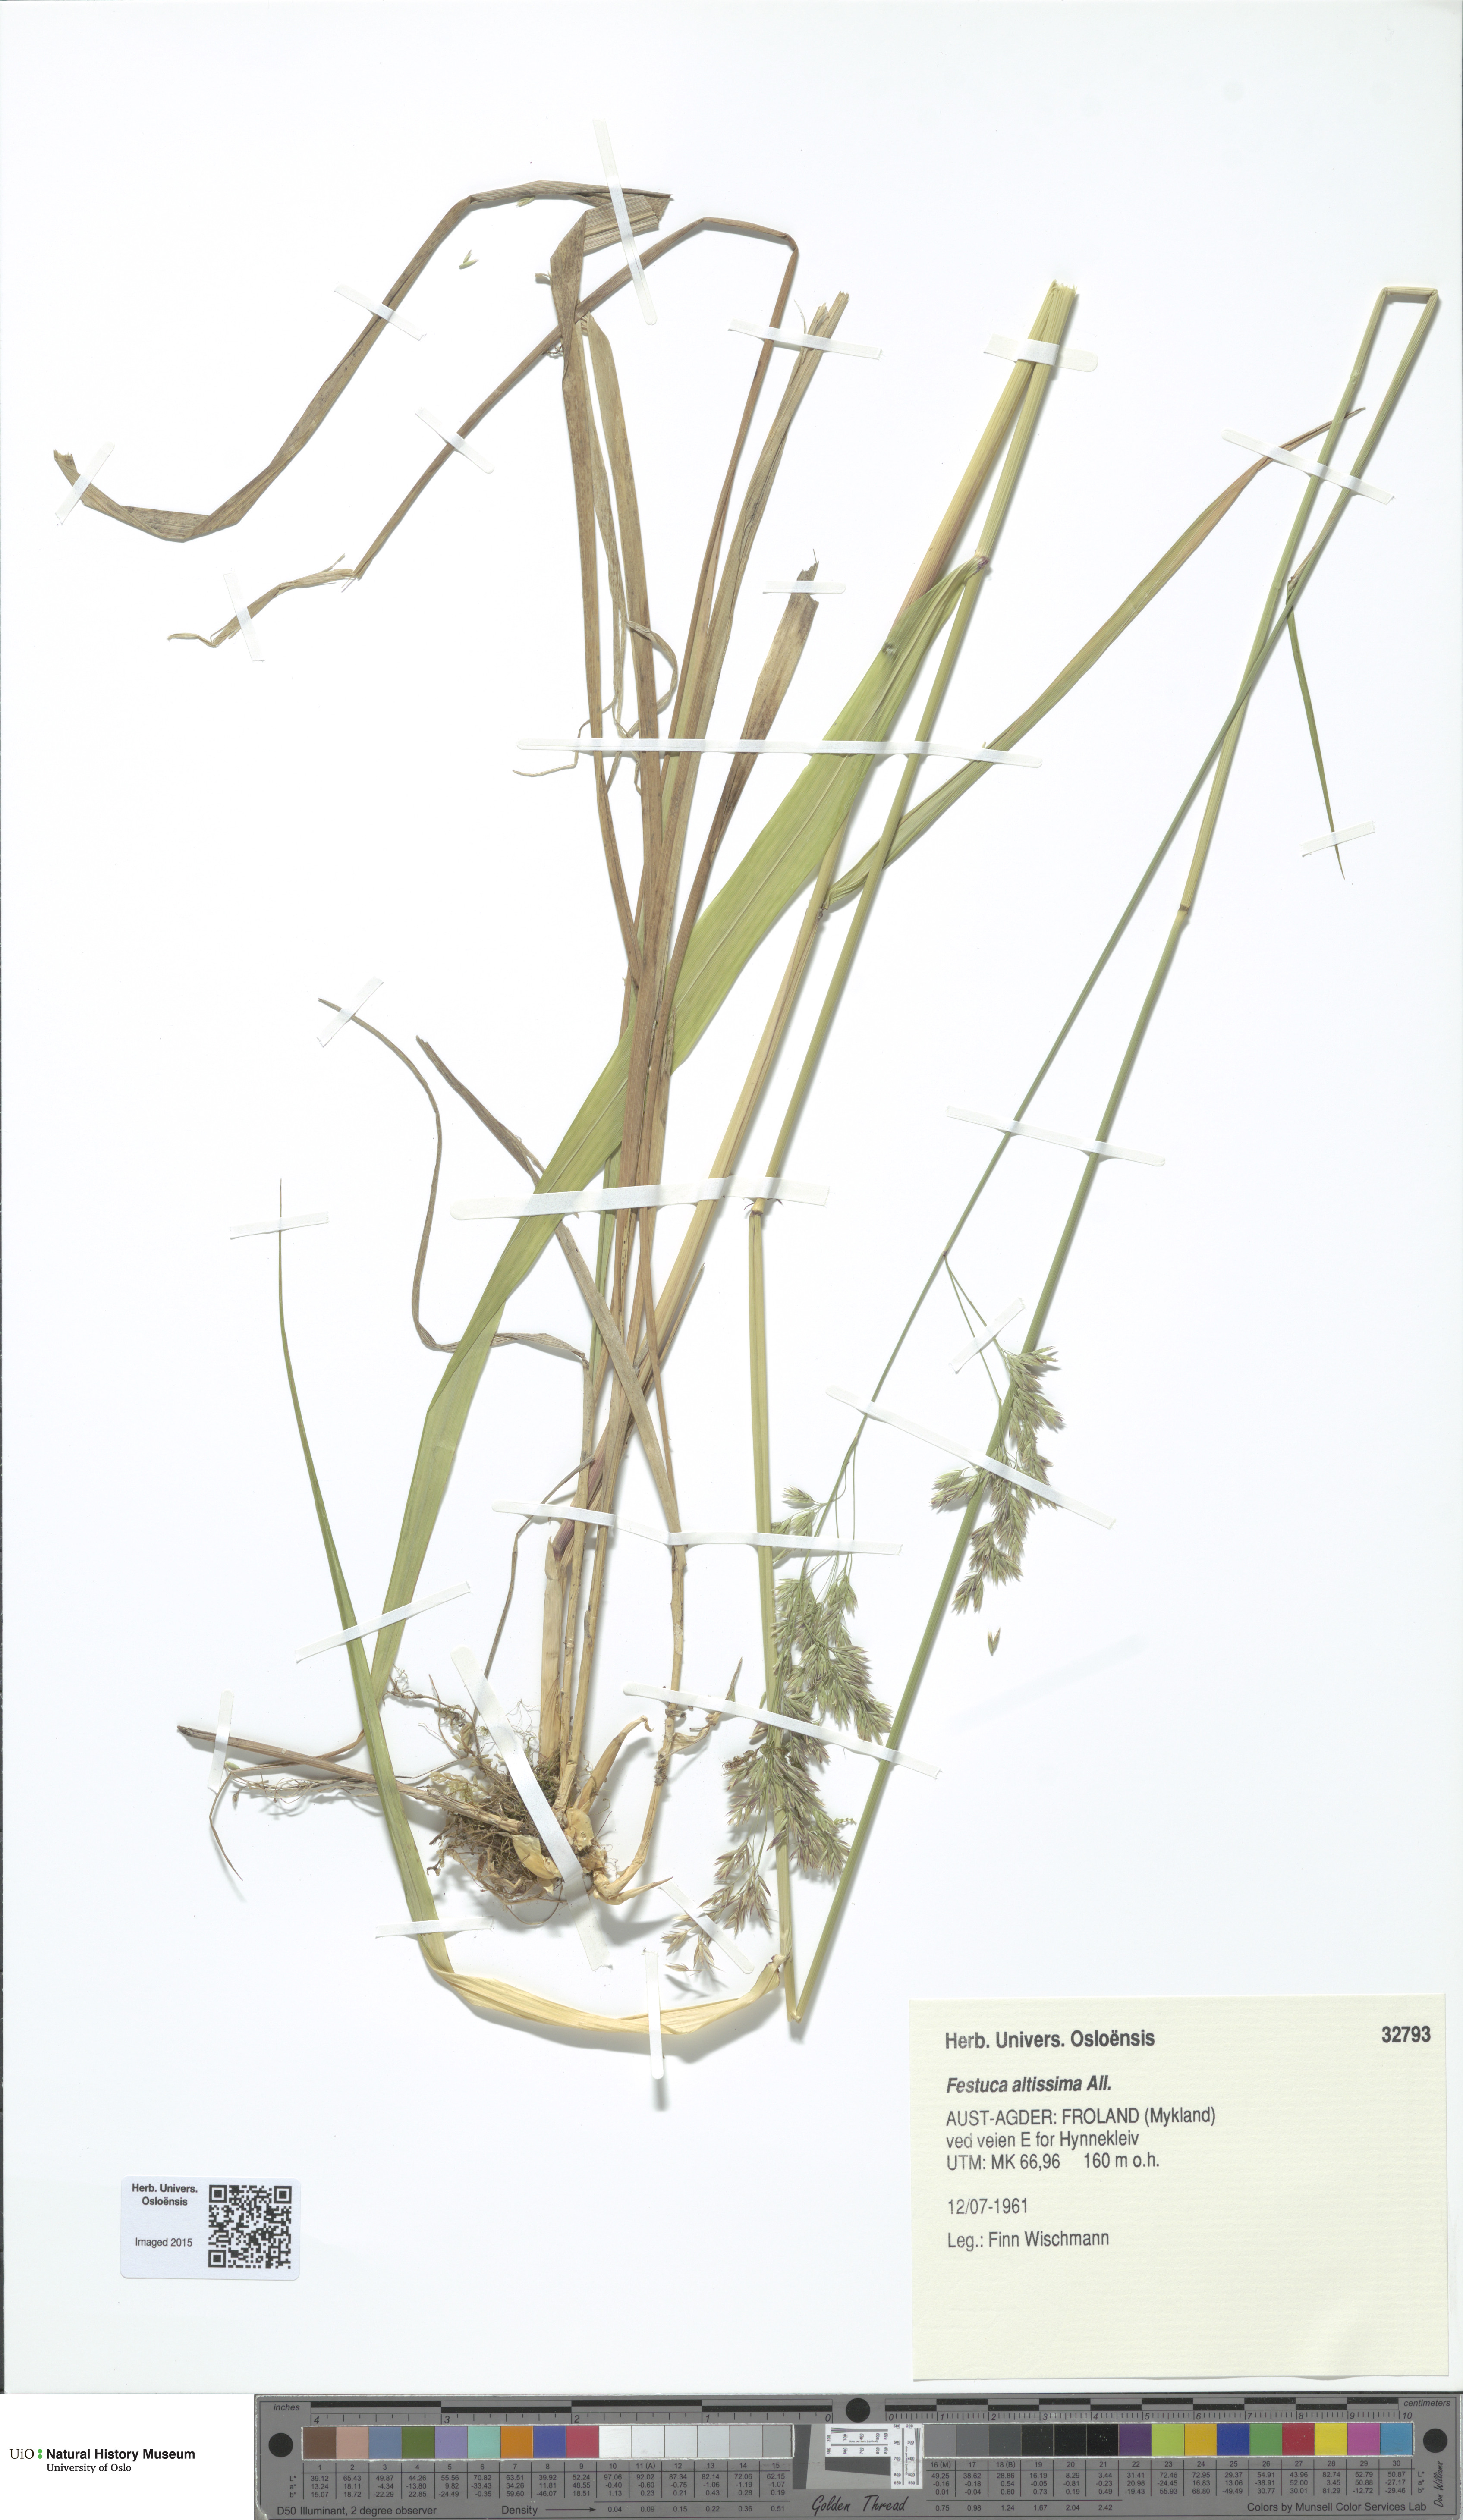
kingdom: Plantae
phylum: Tracheophyta
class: Liliopsida
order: Poales
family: Poaceae
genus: Festuca
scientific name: Festuca altissima
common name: Wood fescue
